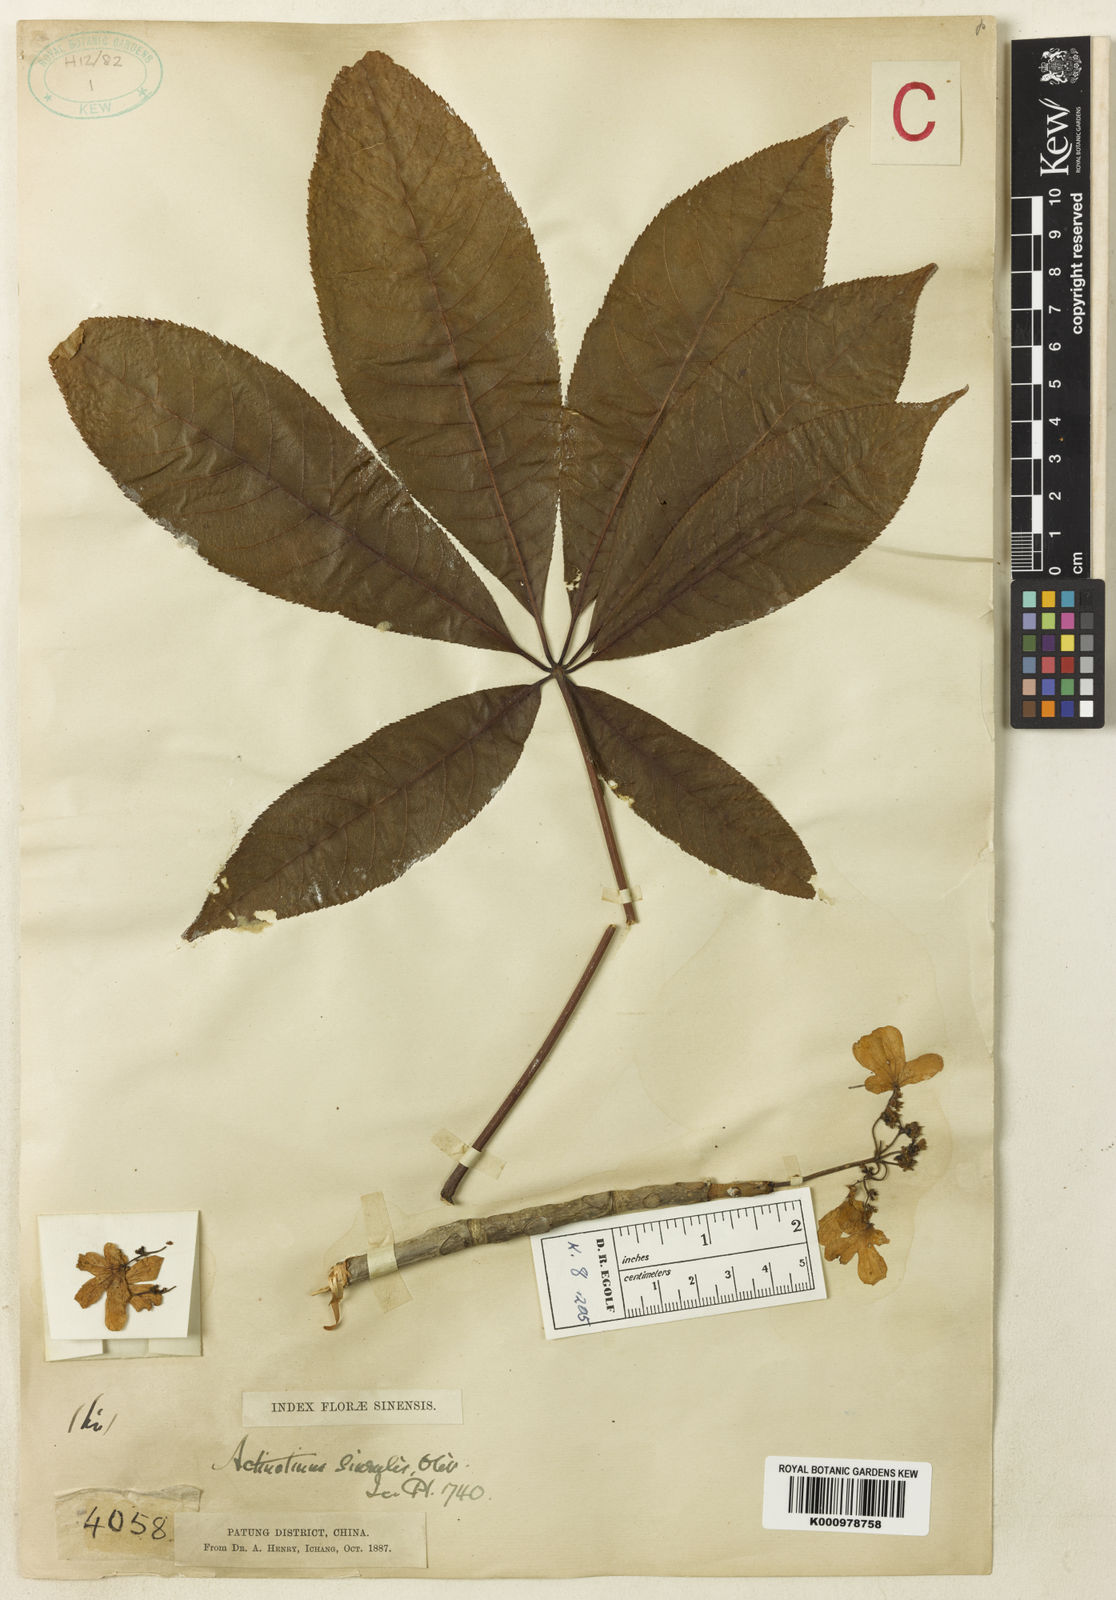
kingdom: Plantae
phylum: Tracheophyta
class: Magnoliopsida
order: Dipsacales
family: Viburnaceae
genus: Viburnum
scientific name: Viburnum plicatum
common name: Japanese snowball
